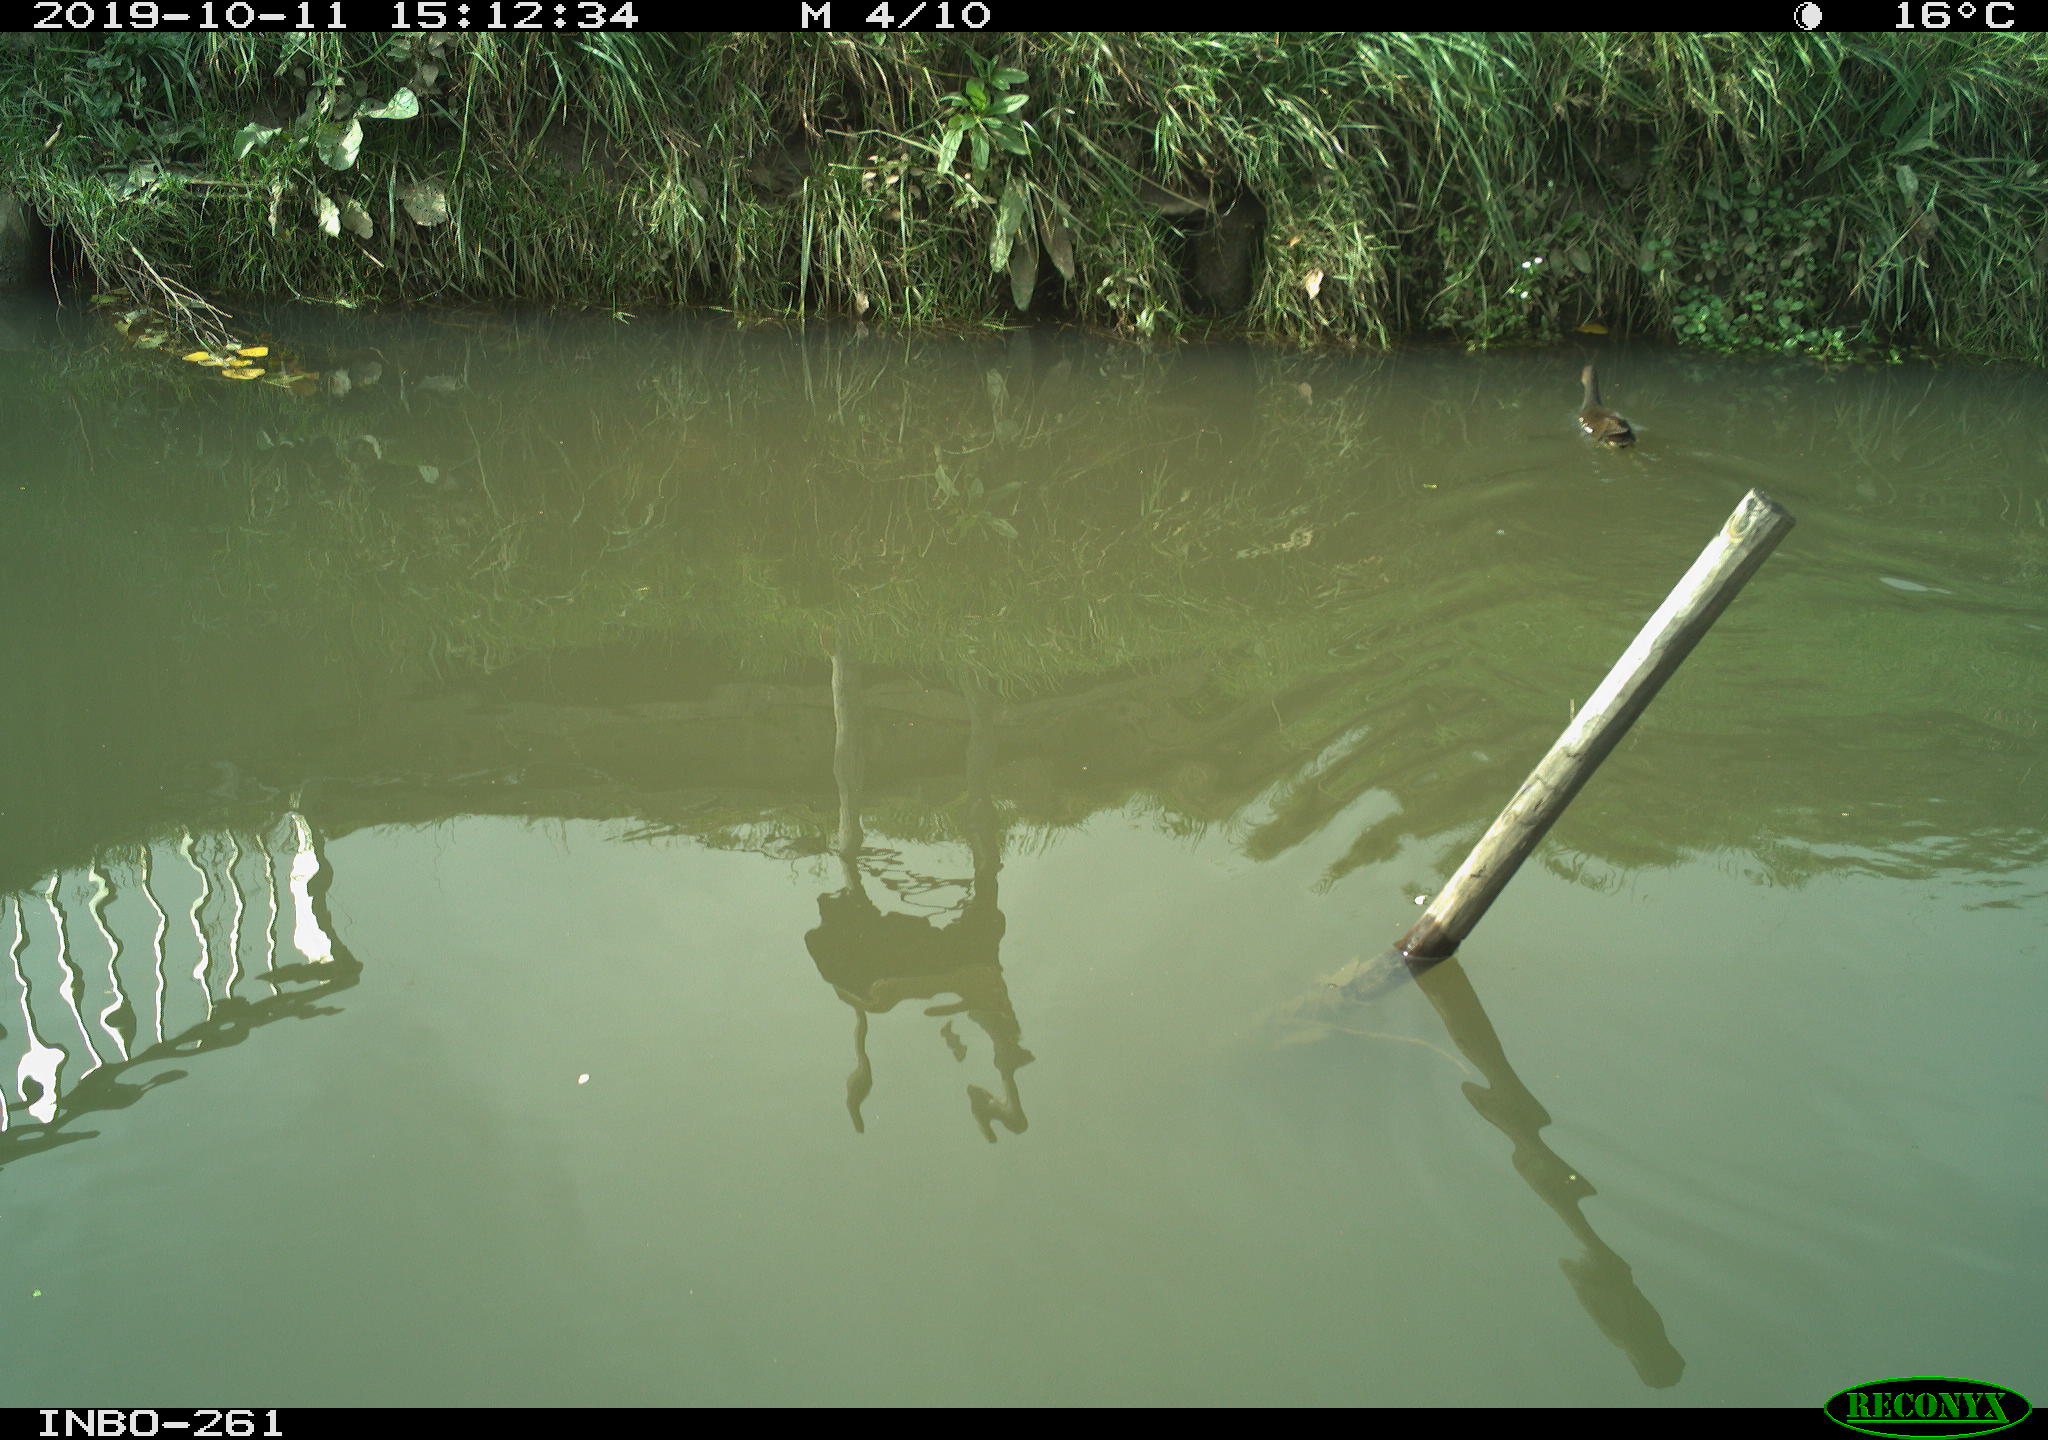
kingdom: Animalia
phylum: Chordata
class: Aves
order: Gruiformes
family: Rallidae
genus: Gallinula
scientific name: Gallinula chloropus
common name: Common moorhen
